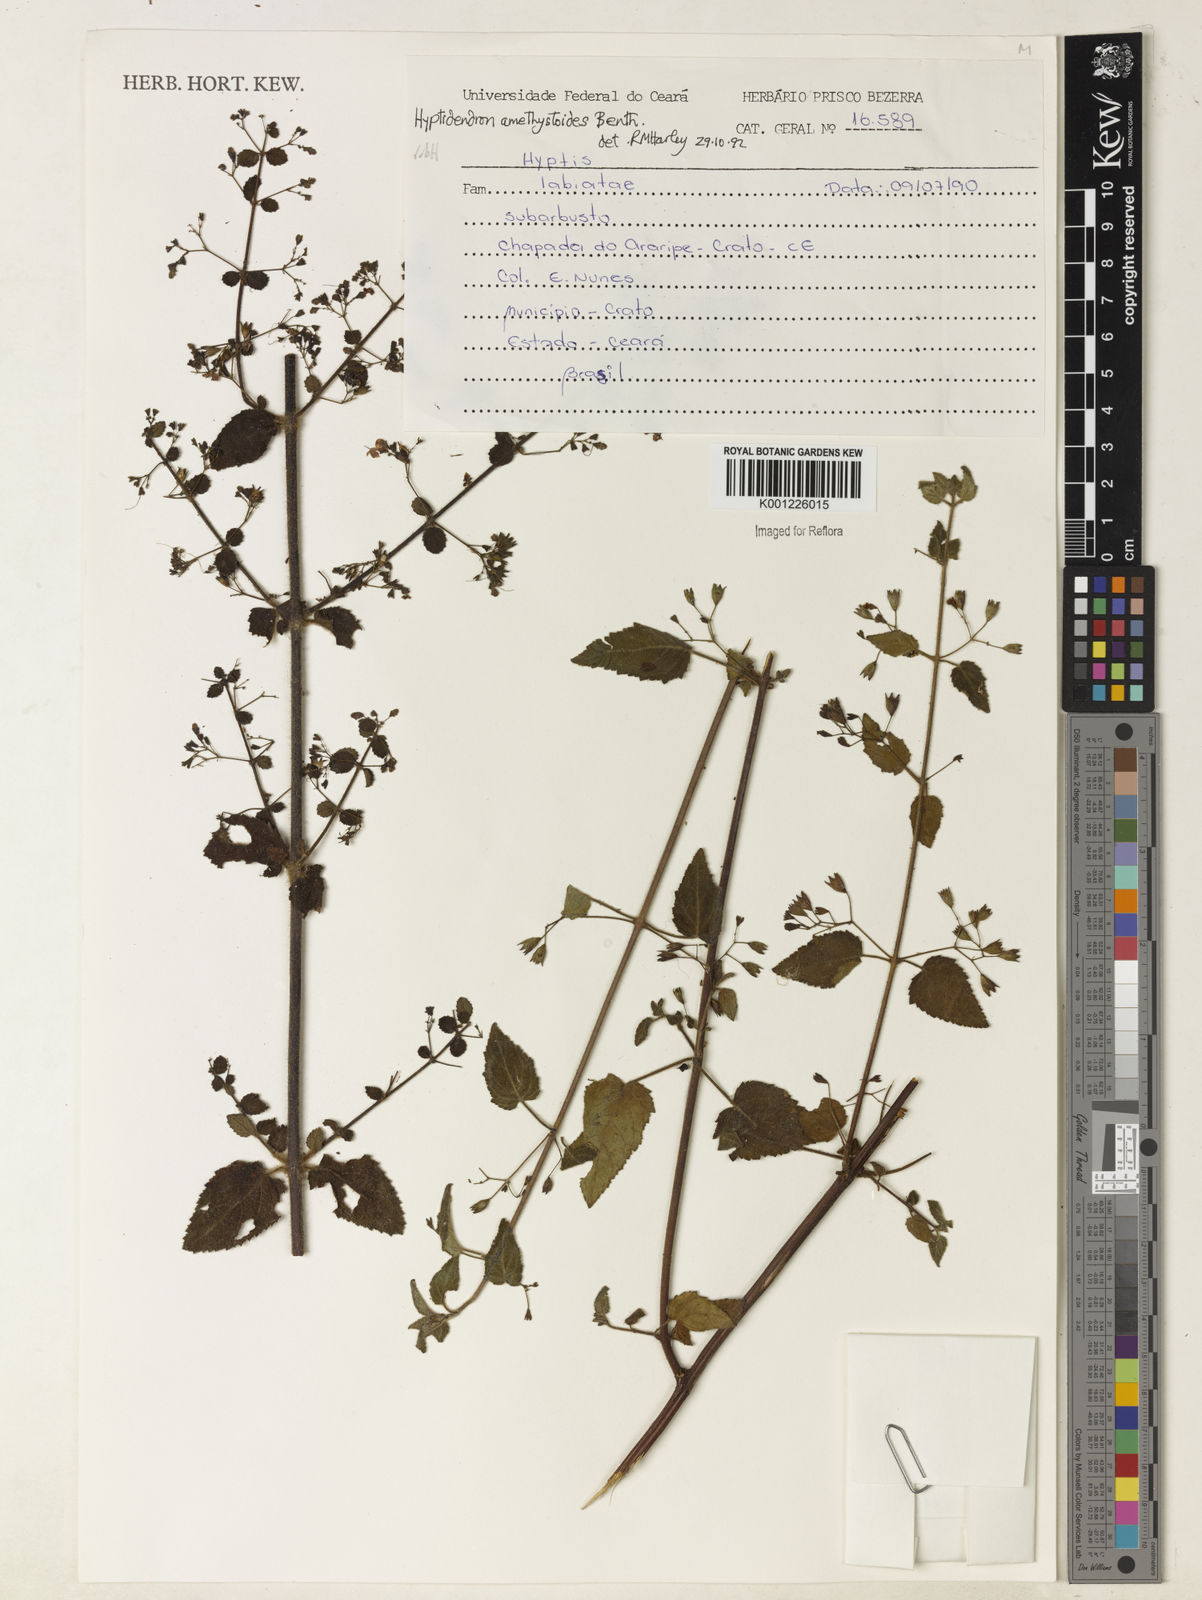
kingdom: Plantae
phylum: Tracheophyta
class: Magnoliopsida
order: Lamiales
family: Lamiaceae
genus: Hyptidendron
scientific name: Hyptidendron amethystoides
